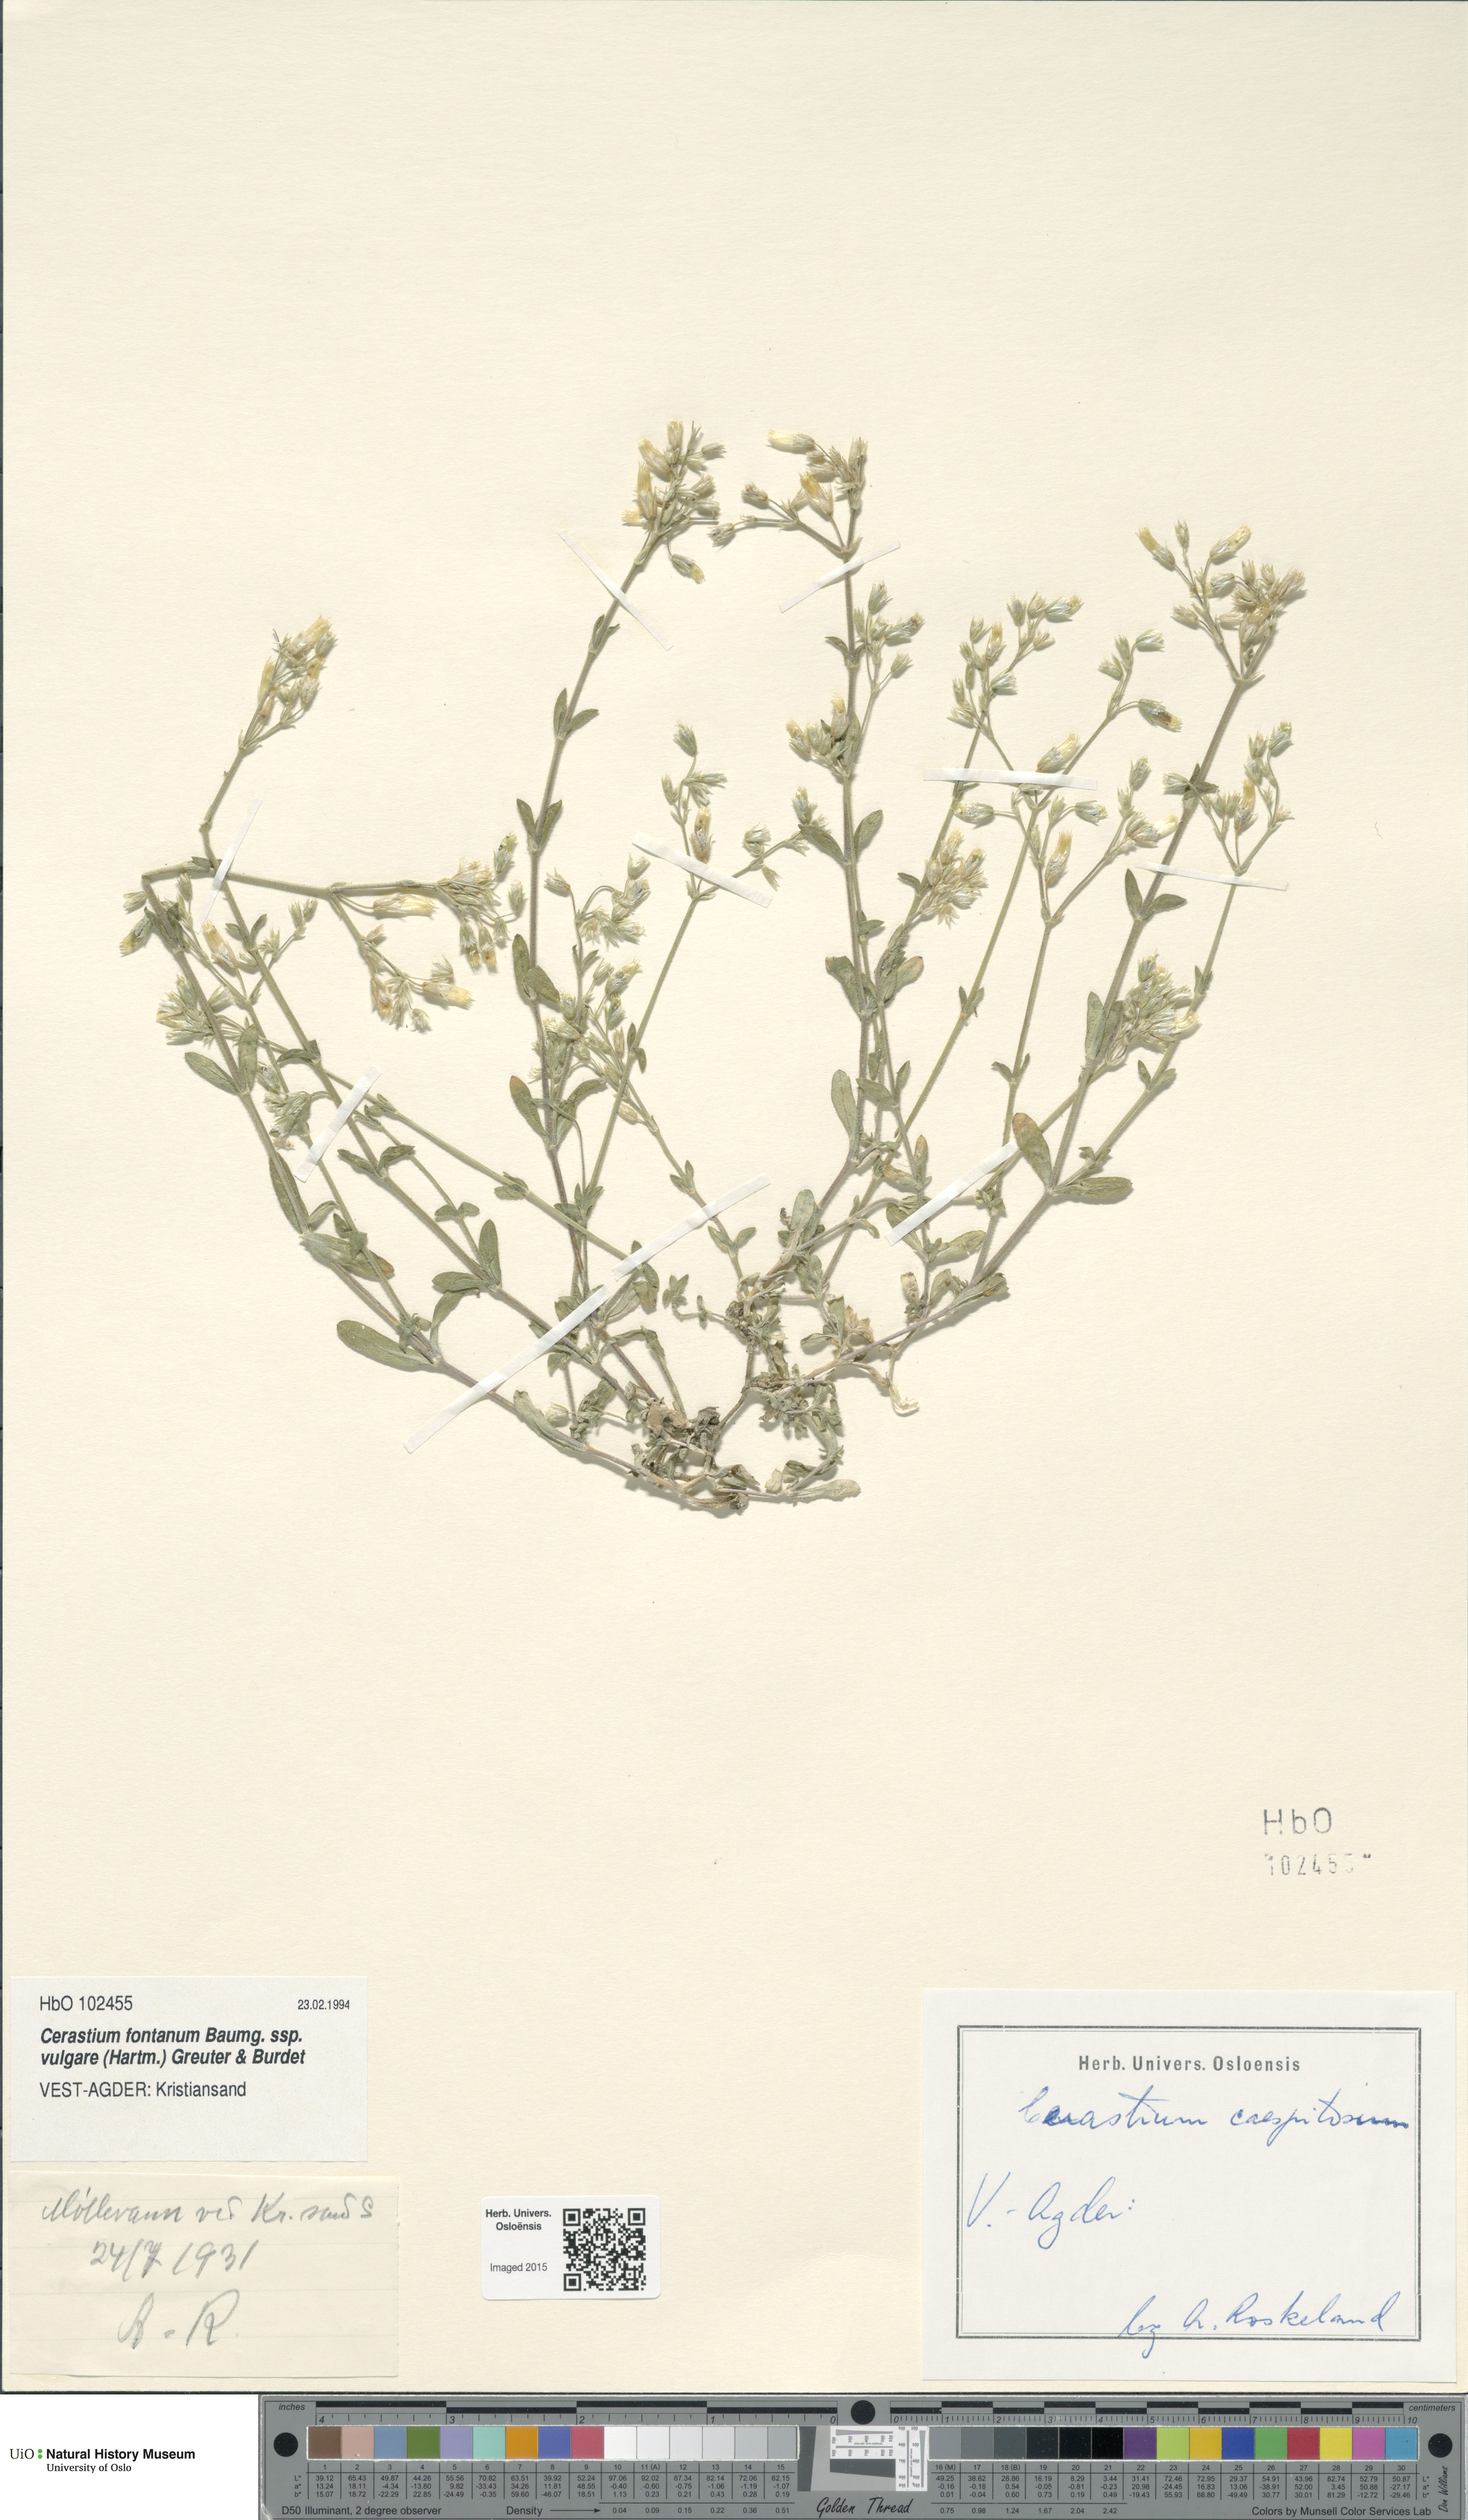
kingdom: Plantae
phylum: Tracheophyta
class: Magnoliopsida
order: Caryophyllales
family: Caryophyllaceae
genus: Cerastium
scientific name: Cerastium holosteoides
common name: Big chickweed
